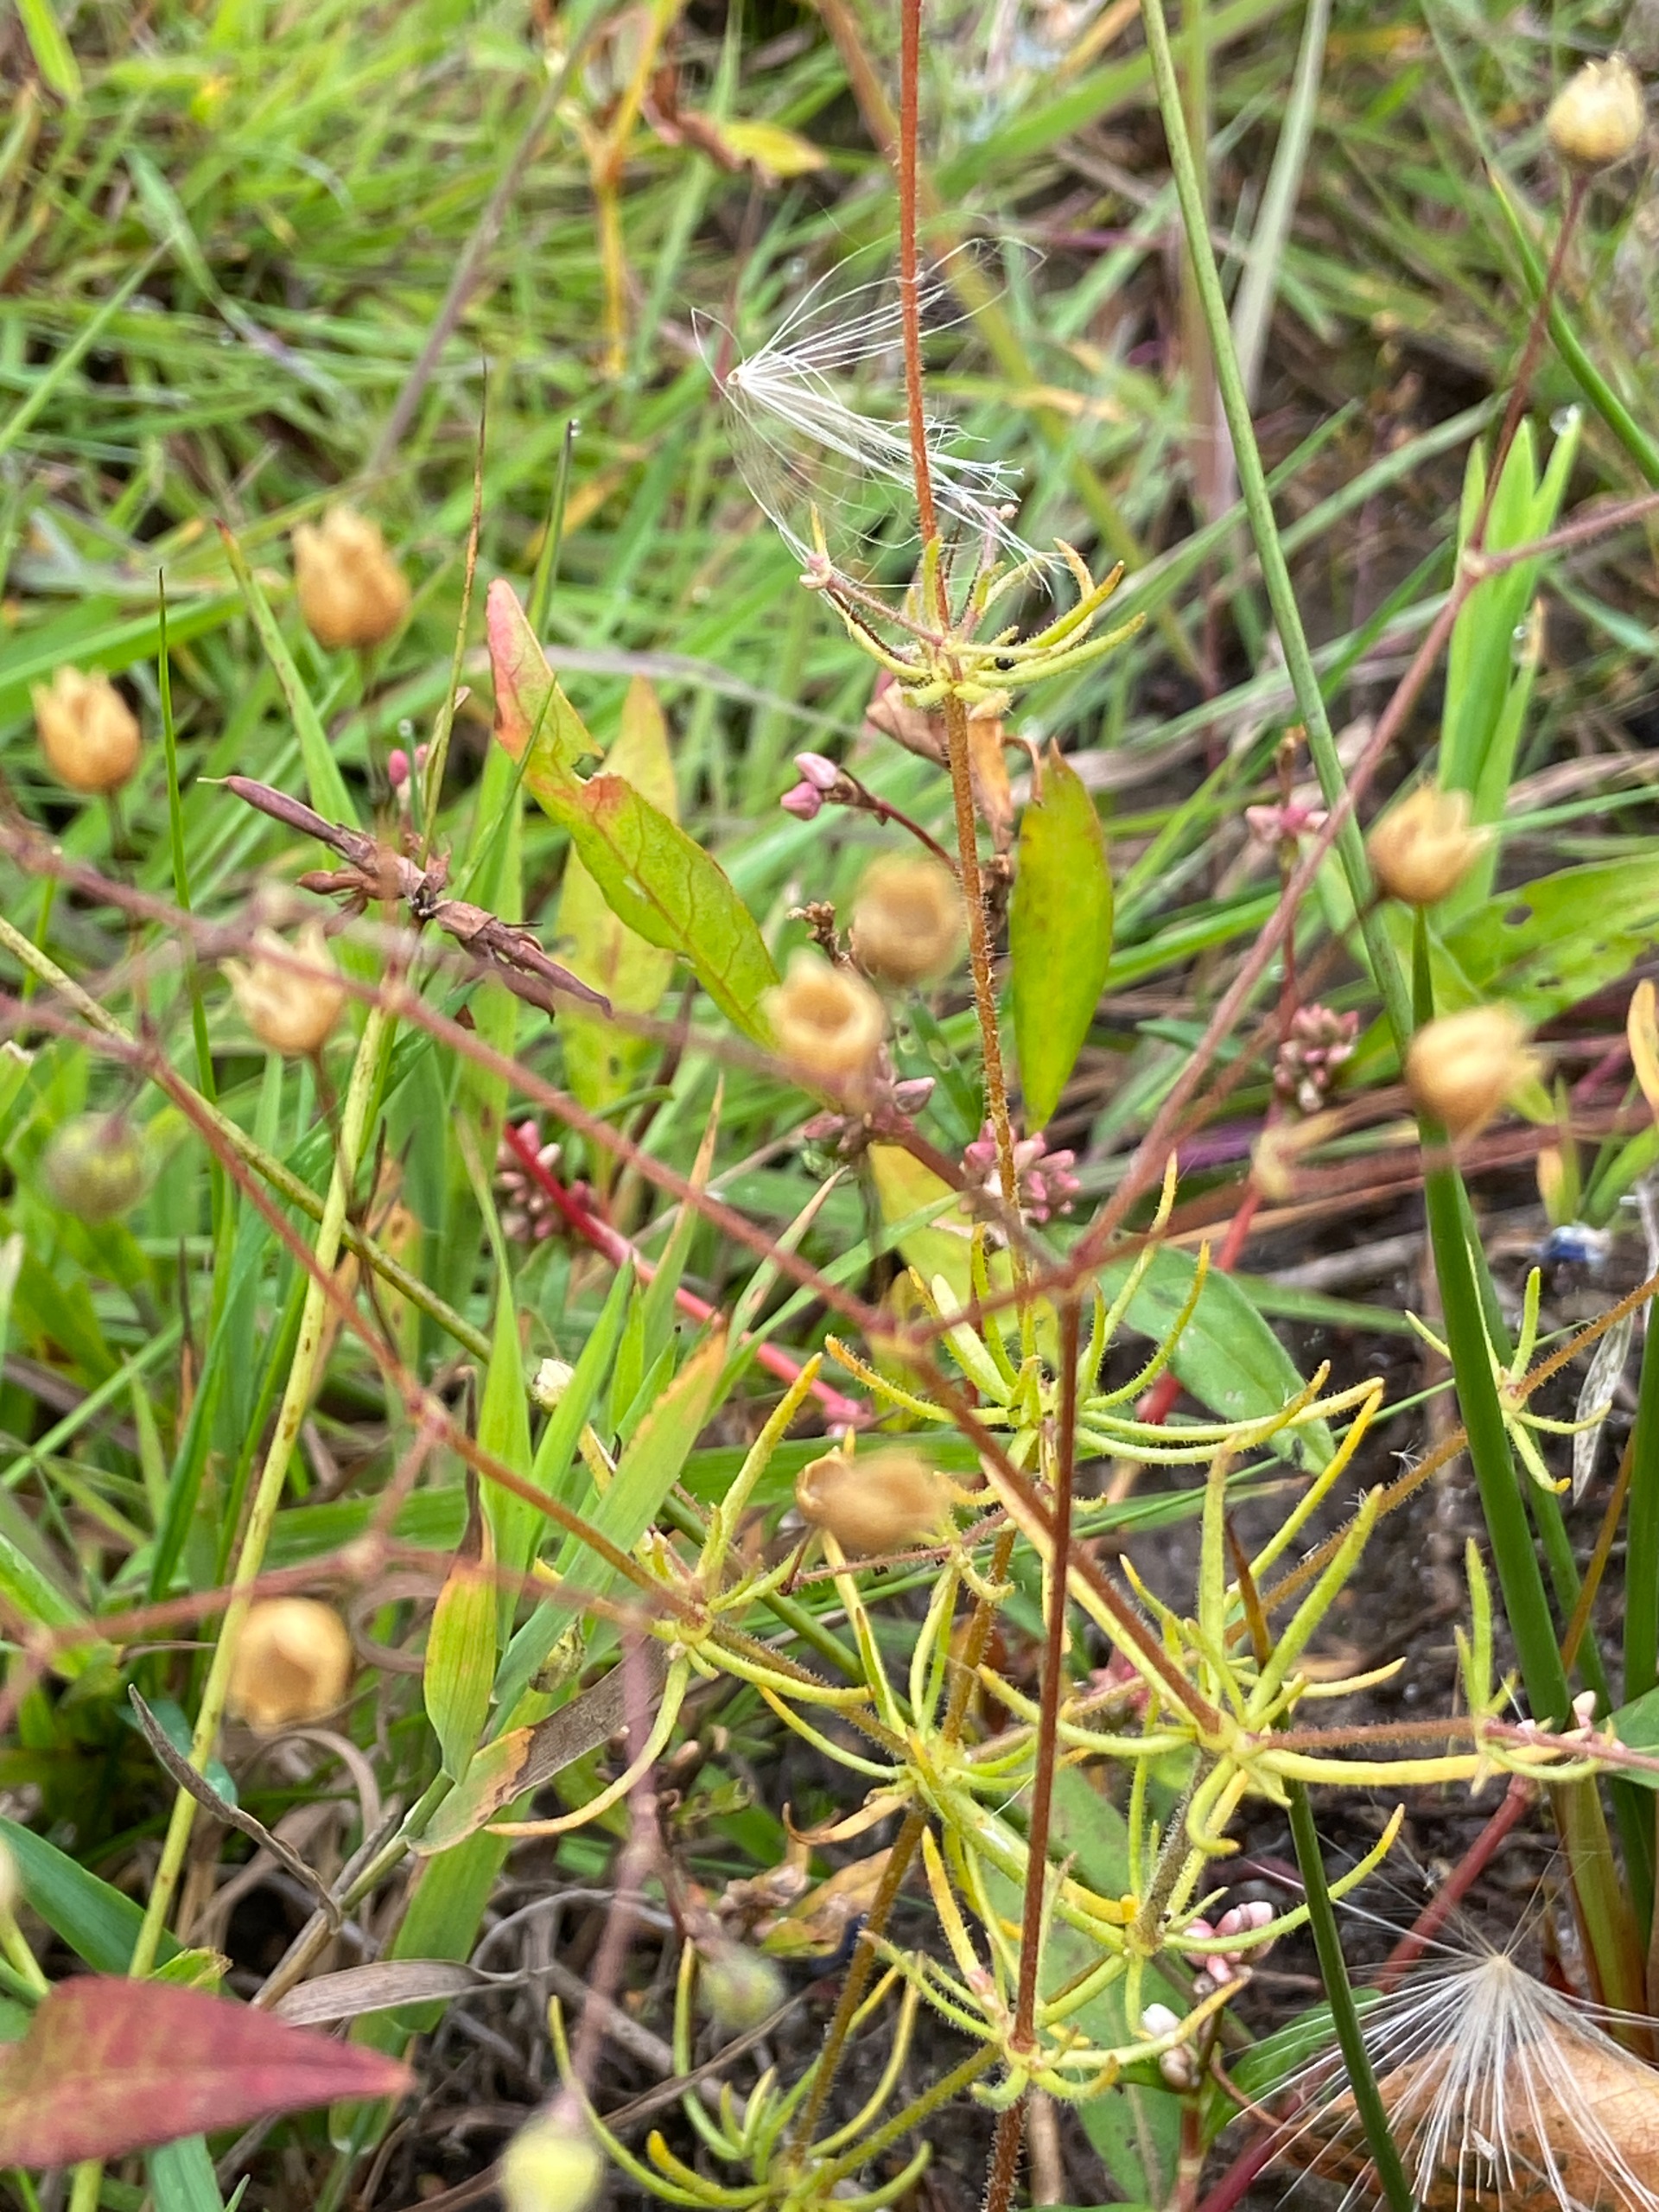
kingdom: Plantae
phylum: Tracheophyta
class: Magnoliopsida
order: Caryophyllales
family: Caryophyllaceae
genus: Spergula
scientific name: Spergula arvensis
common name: Almindelig spergel
